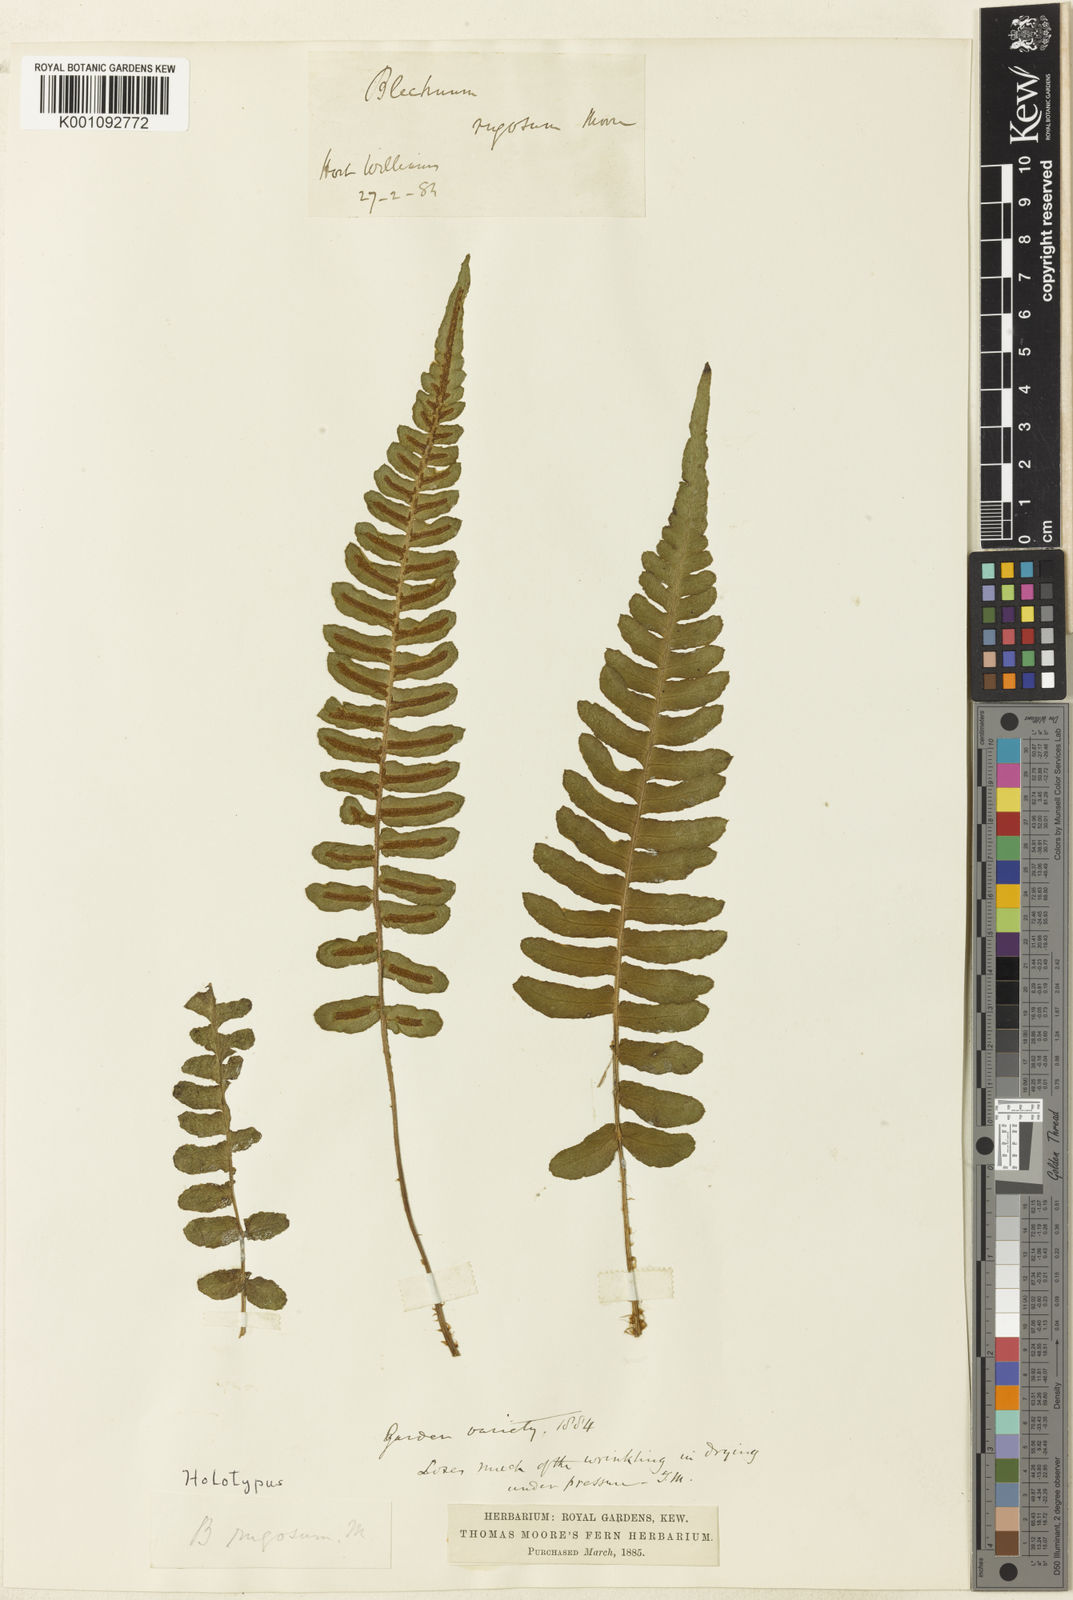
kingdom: Plantae
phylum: Tracheophyta
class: Polypodiopsida
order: Polypodiales
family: Blechnaceae
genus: Blechnum
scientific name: Blechnum occidentale
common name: Hammock fern
